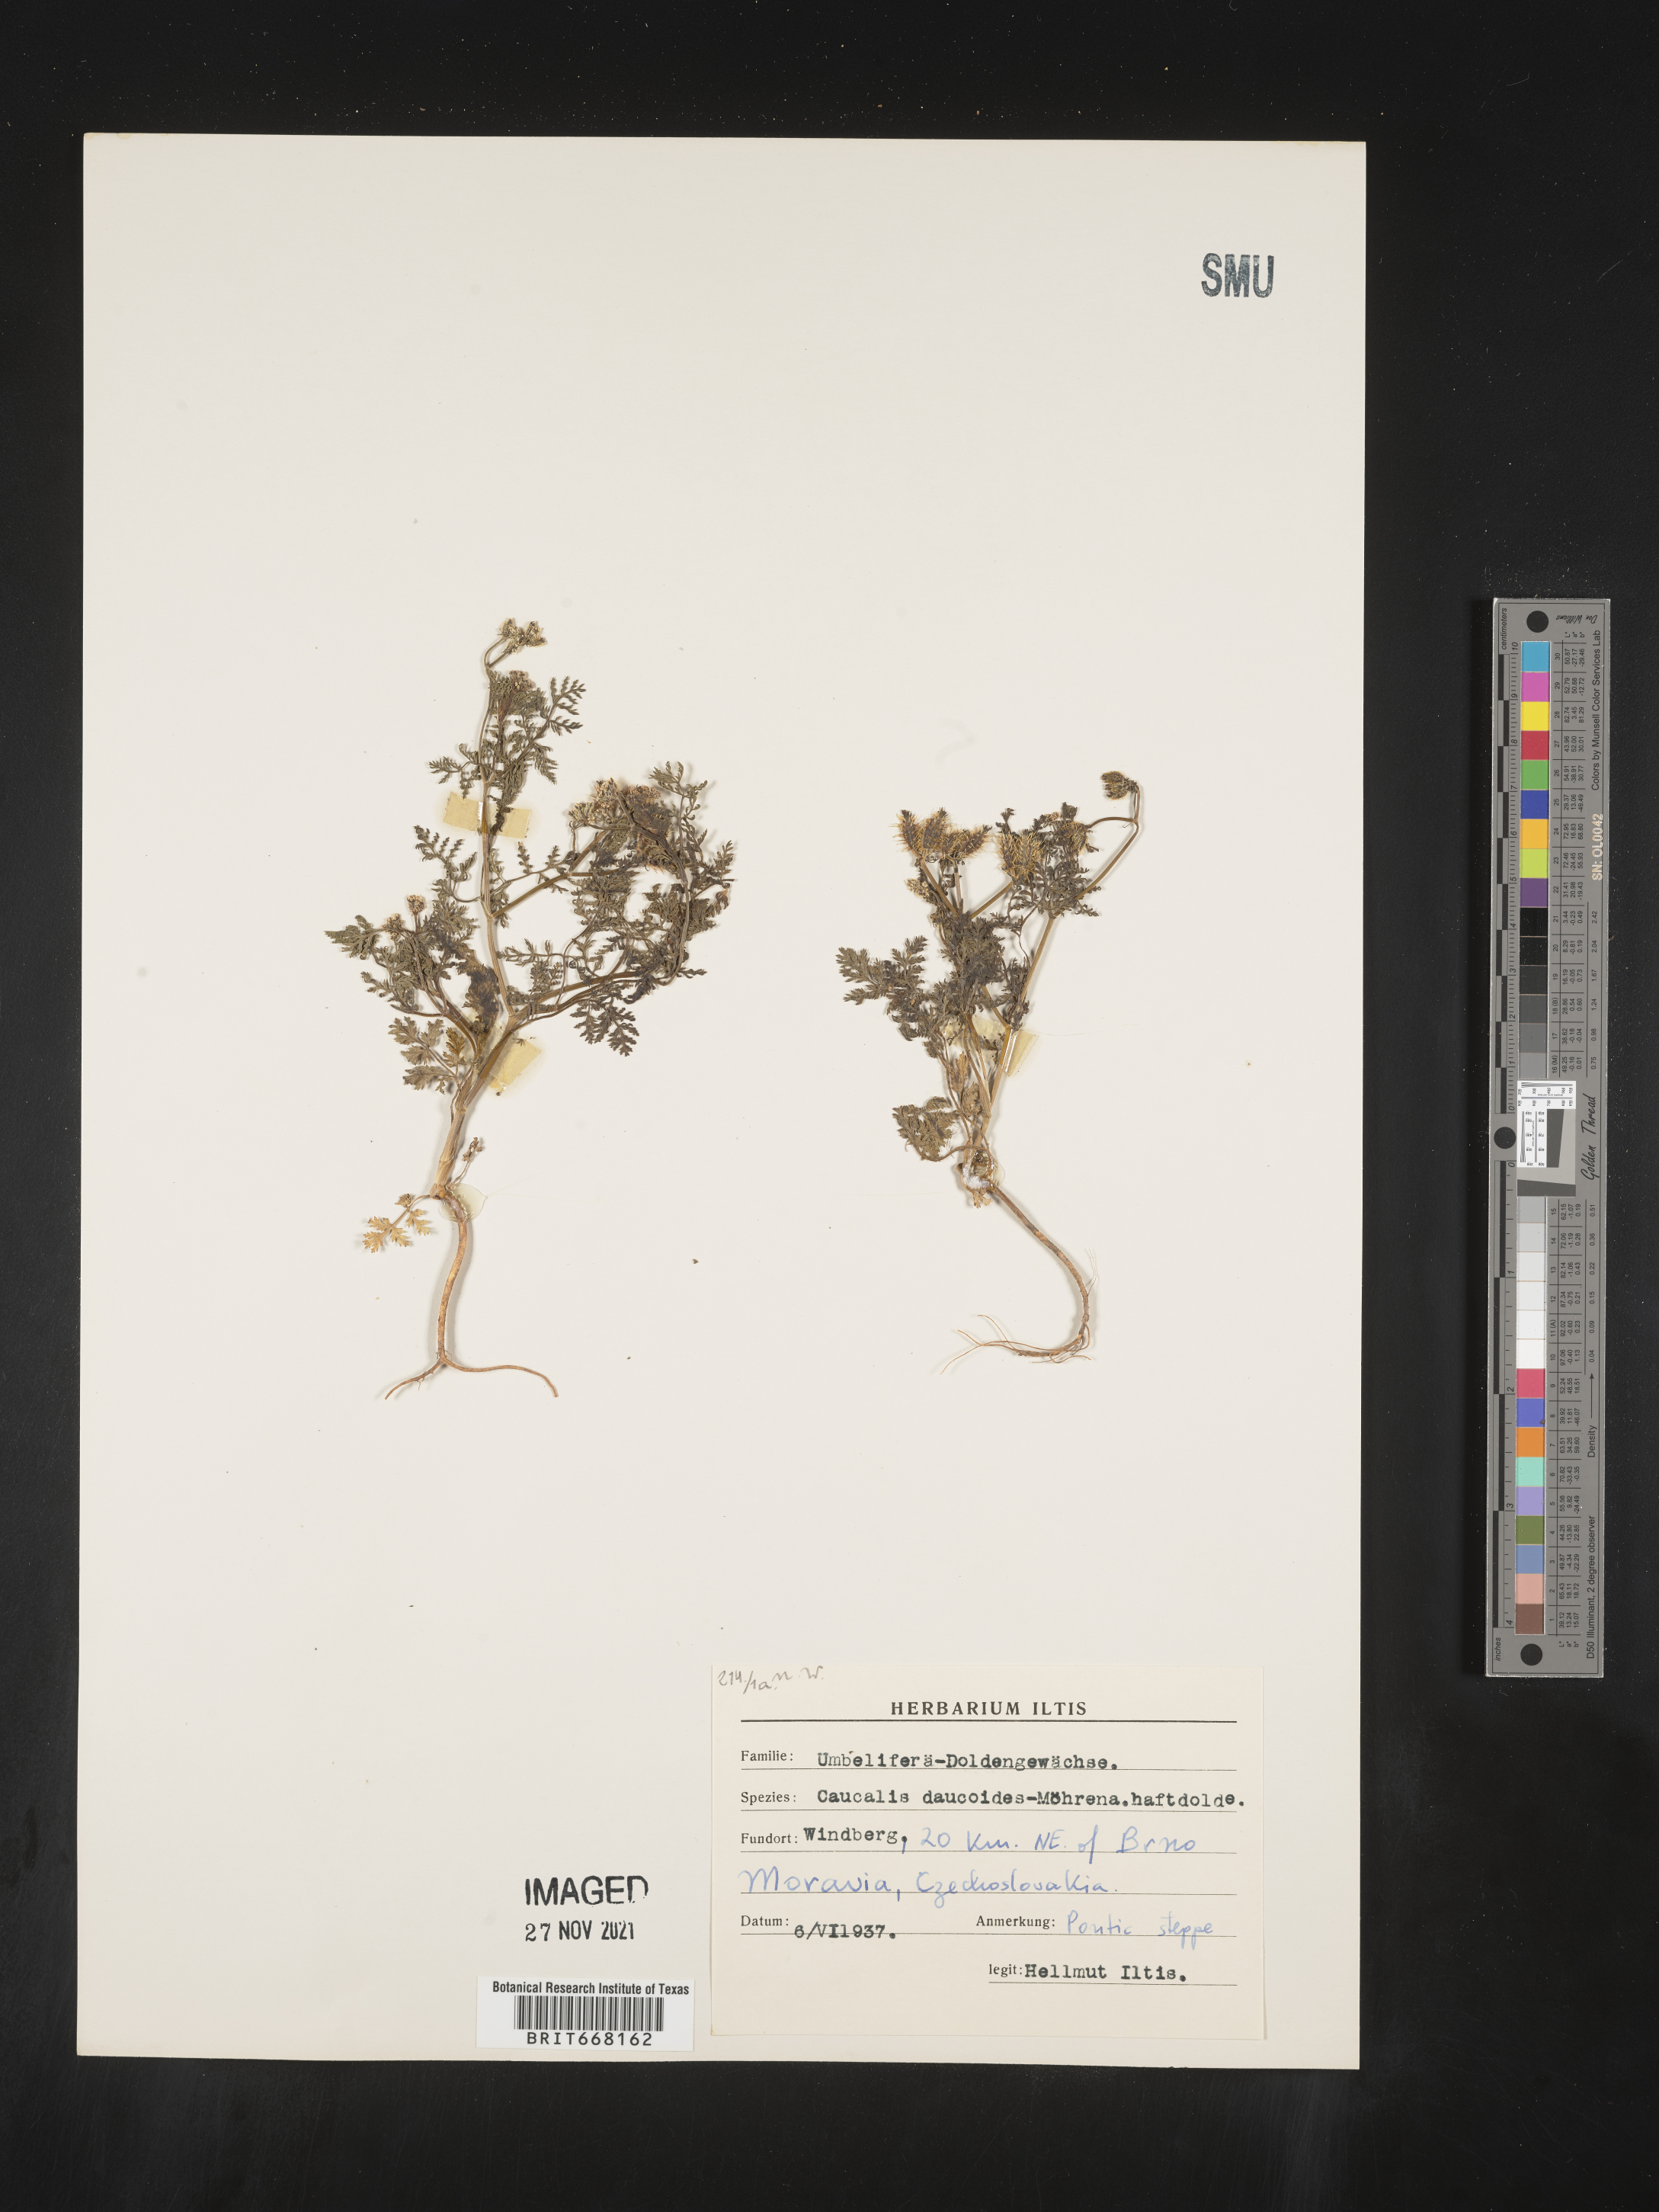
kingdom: Plantae
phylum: Tracheophyta
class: Magnoliopsida
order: Apiales
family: Apiaceae
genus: Caucalis
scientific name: Caucalis
